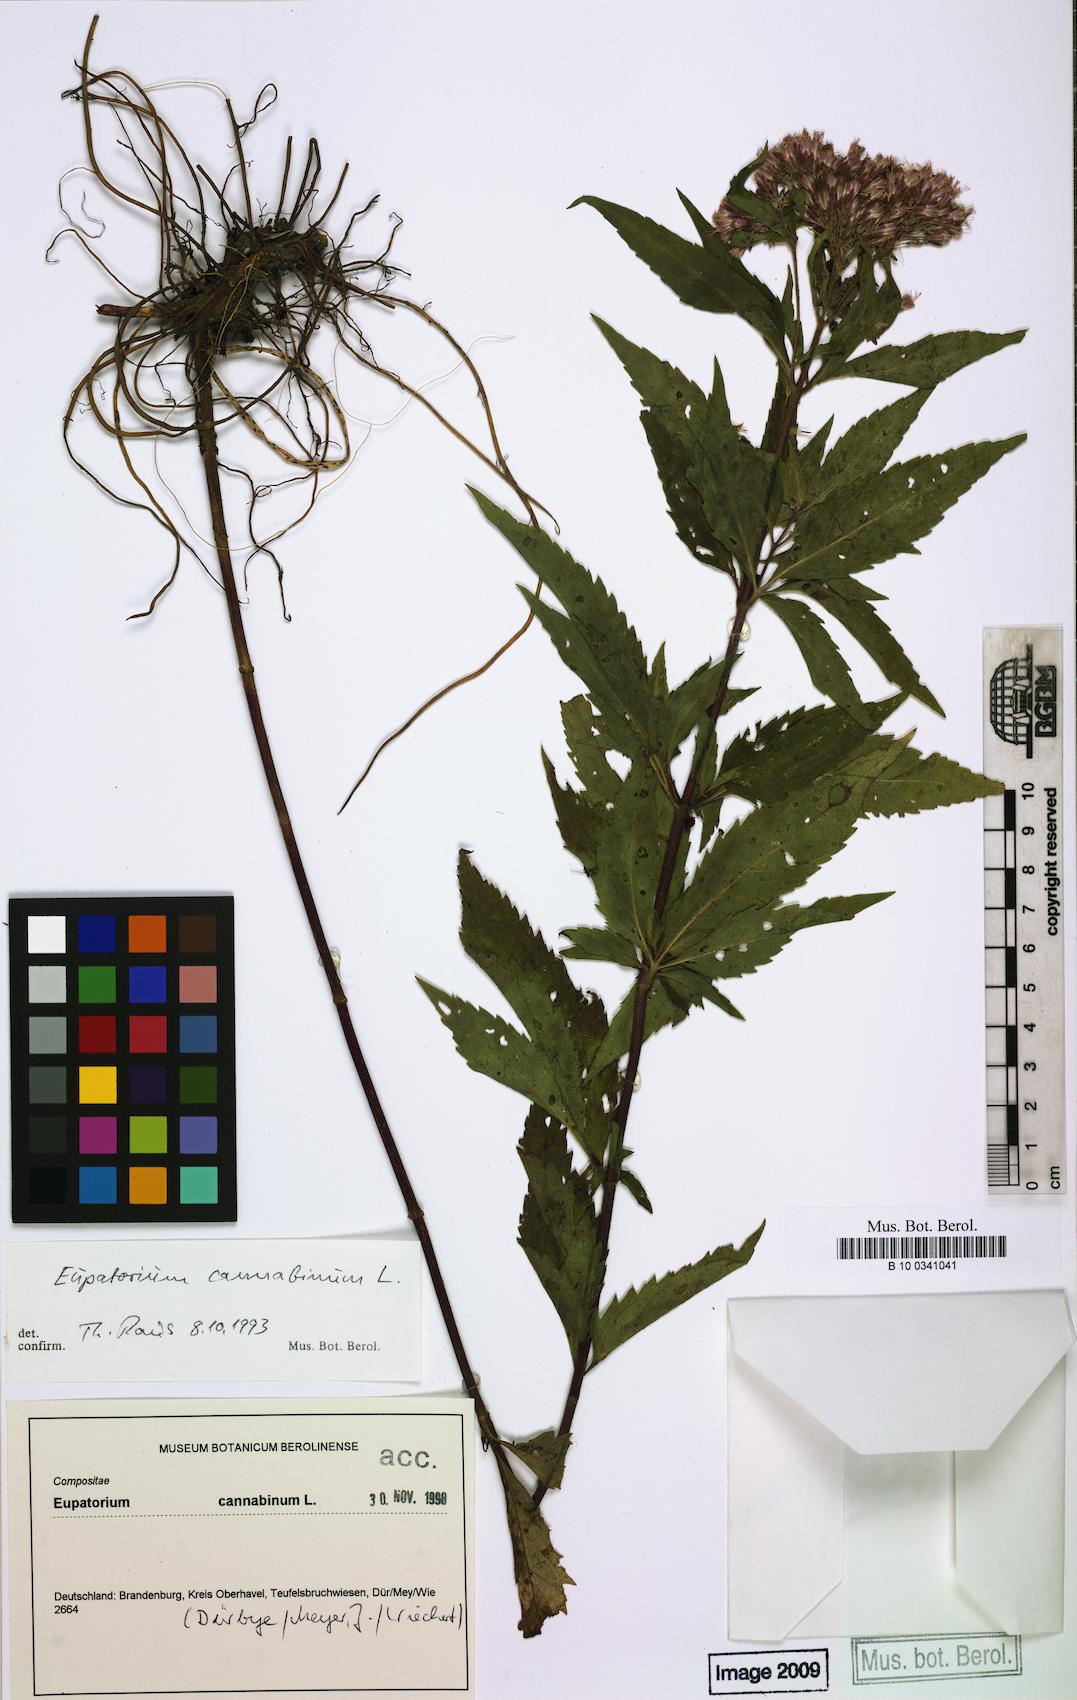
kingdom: Plantae
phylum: Tracheophyta
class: Magnoliopsida
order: Asterales
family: Asteraceae
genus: Eupatorium
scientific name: Eupatorium cannabinum
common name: Hemp-agrimony
